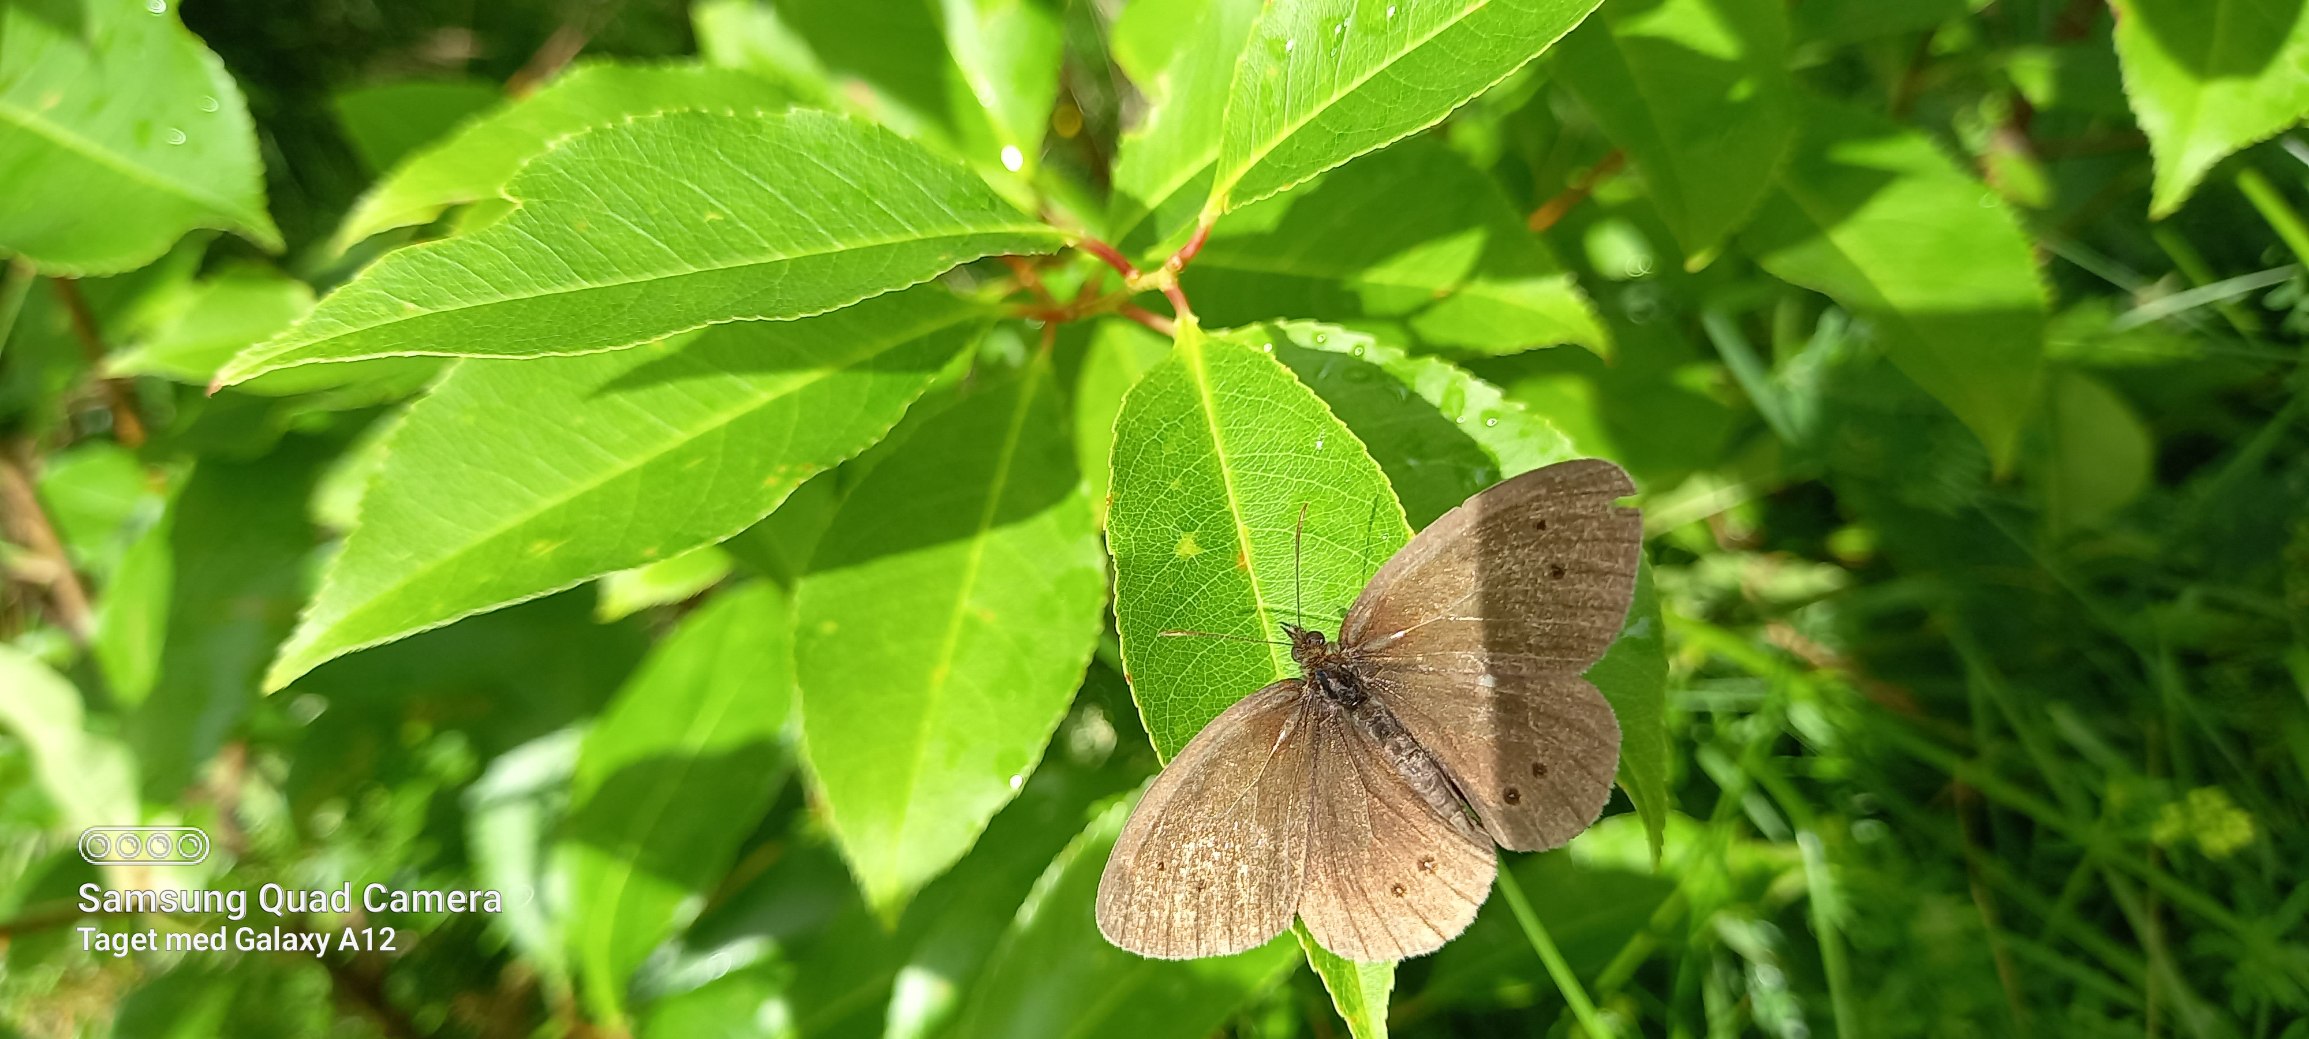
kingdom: Animalia
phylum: Arthropoda
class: Insecta
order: Lepidoptera
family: Nymphalidae
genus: Aphantopus
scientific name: Aphantopus hyperantus
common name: Engrandøje
